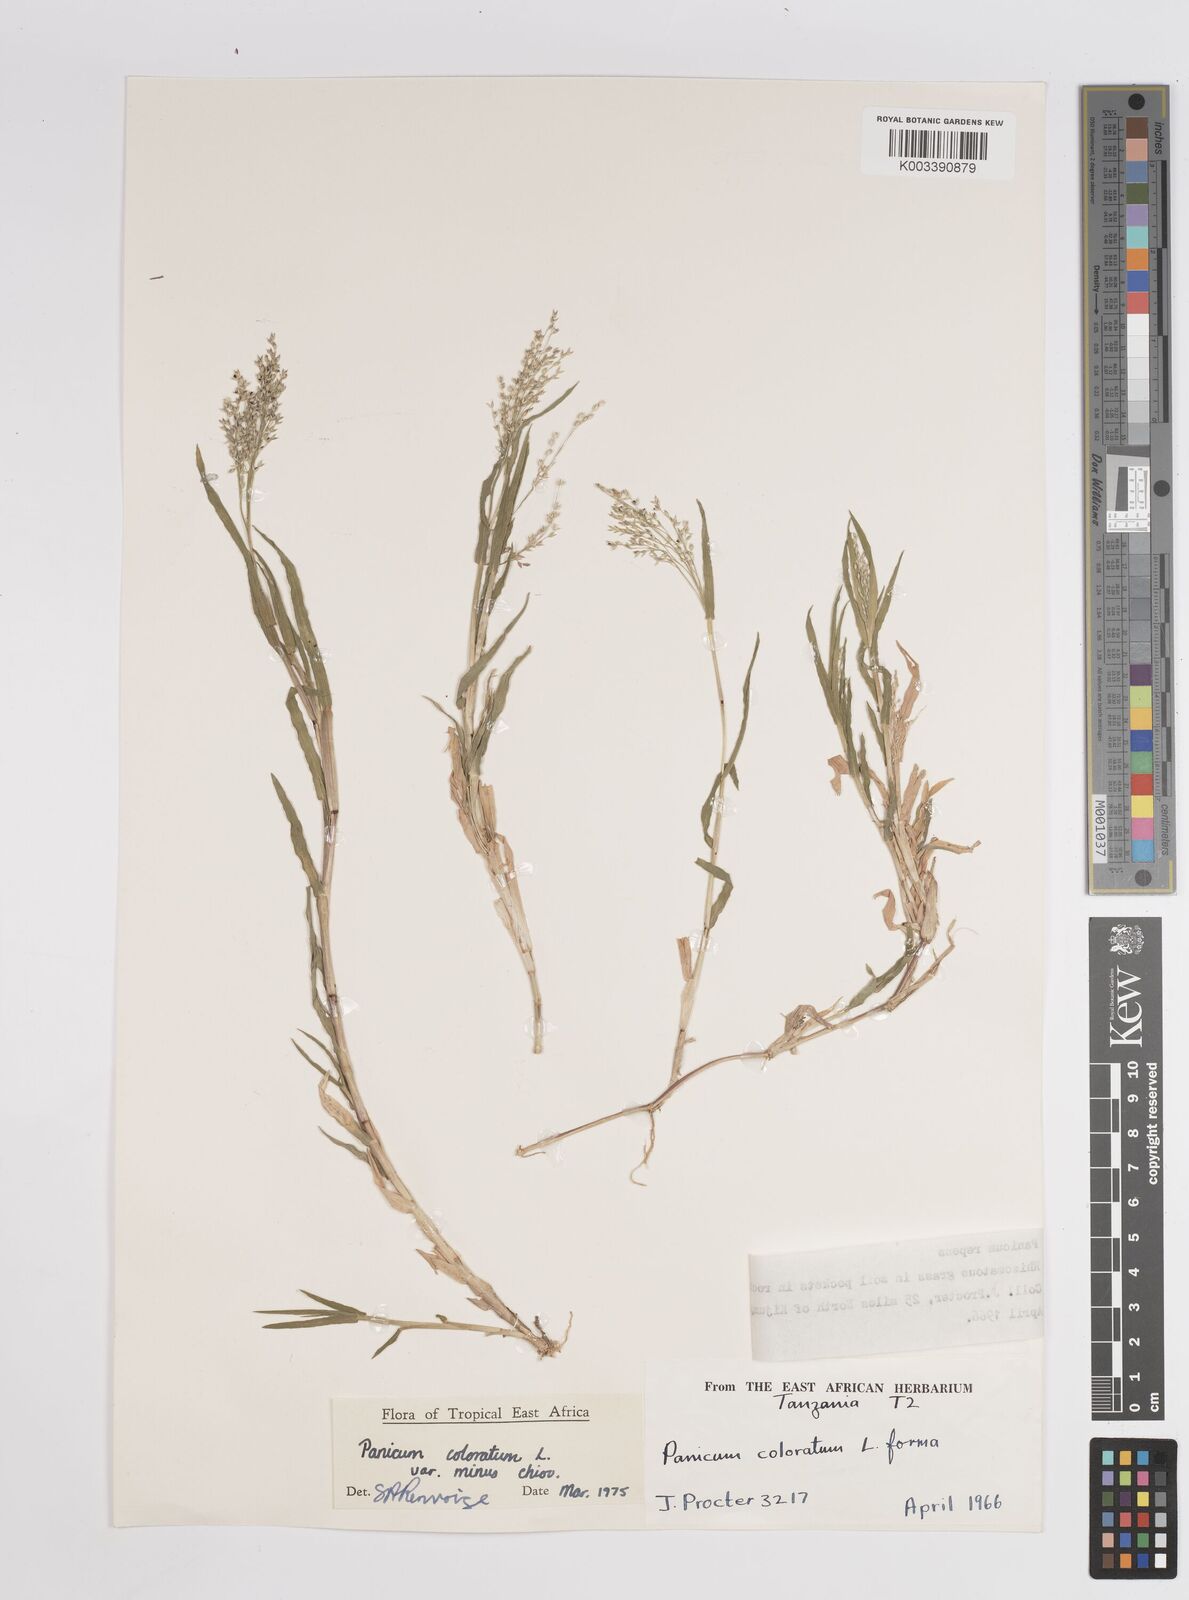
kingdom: Plantae
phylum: Tracheophyta
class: Liliopsida
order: Poales
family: Poaceae
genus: Panicum
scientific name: Panicum coloratum
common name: Kleingrass
